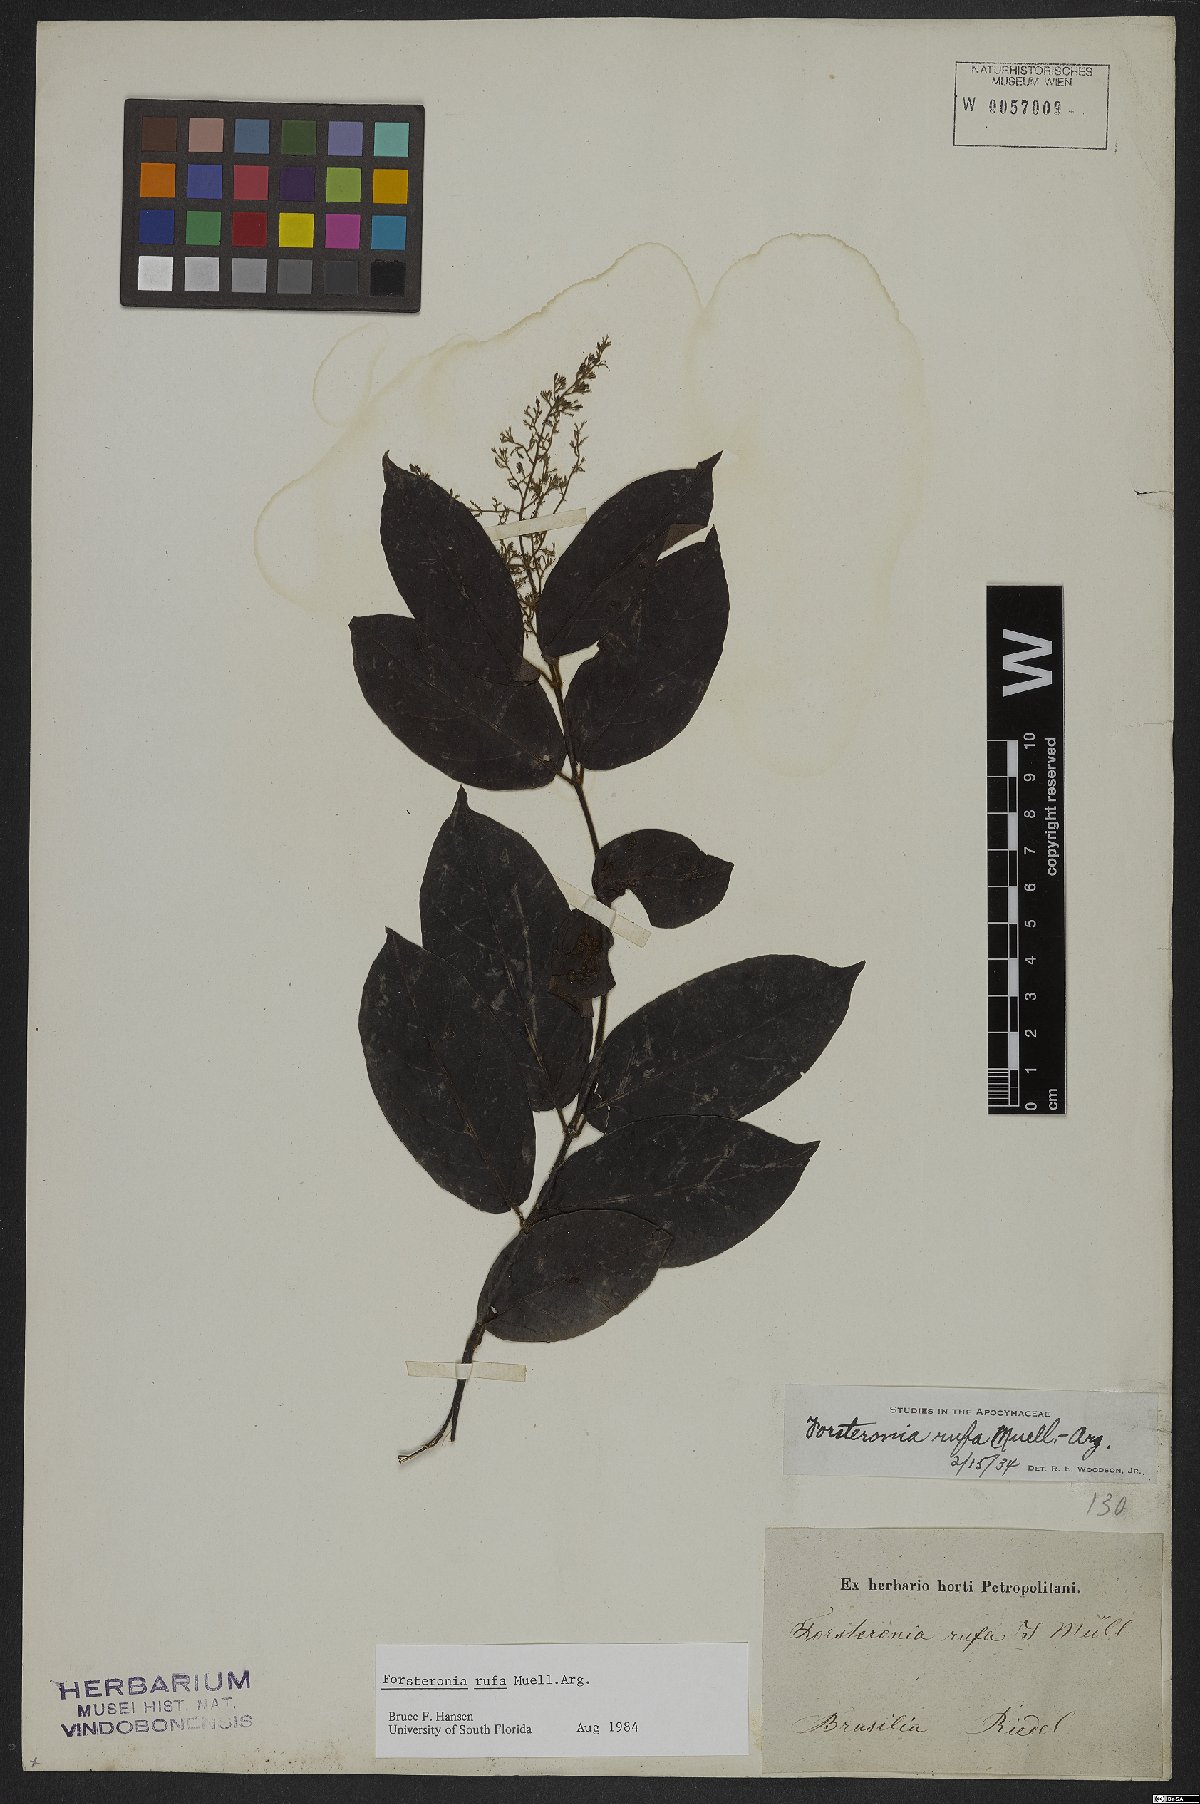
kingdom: Plantae
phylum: Tracheophyta
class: Magnoliopsida
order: Gentianales
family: Apocynaceae
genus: Forsteronia
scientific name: Forsteronia rufa
